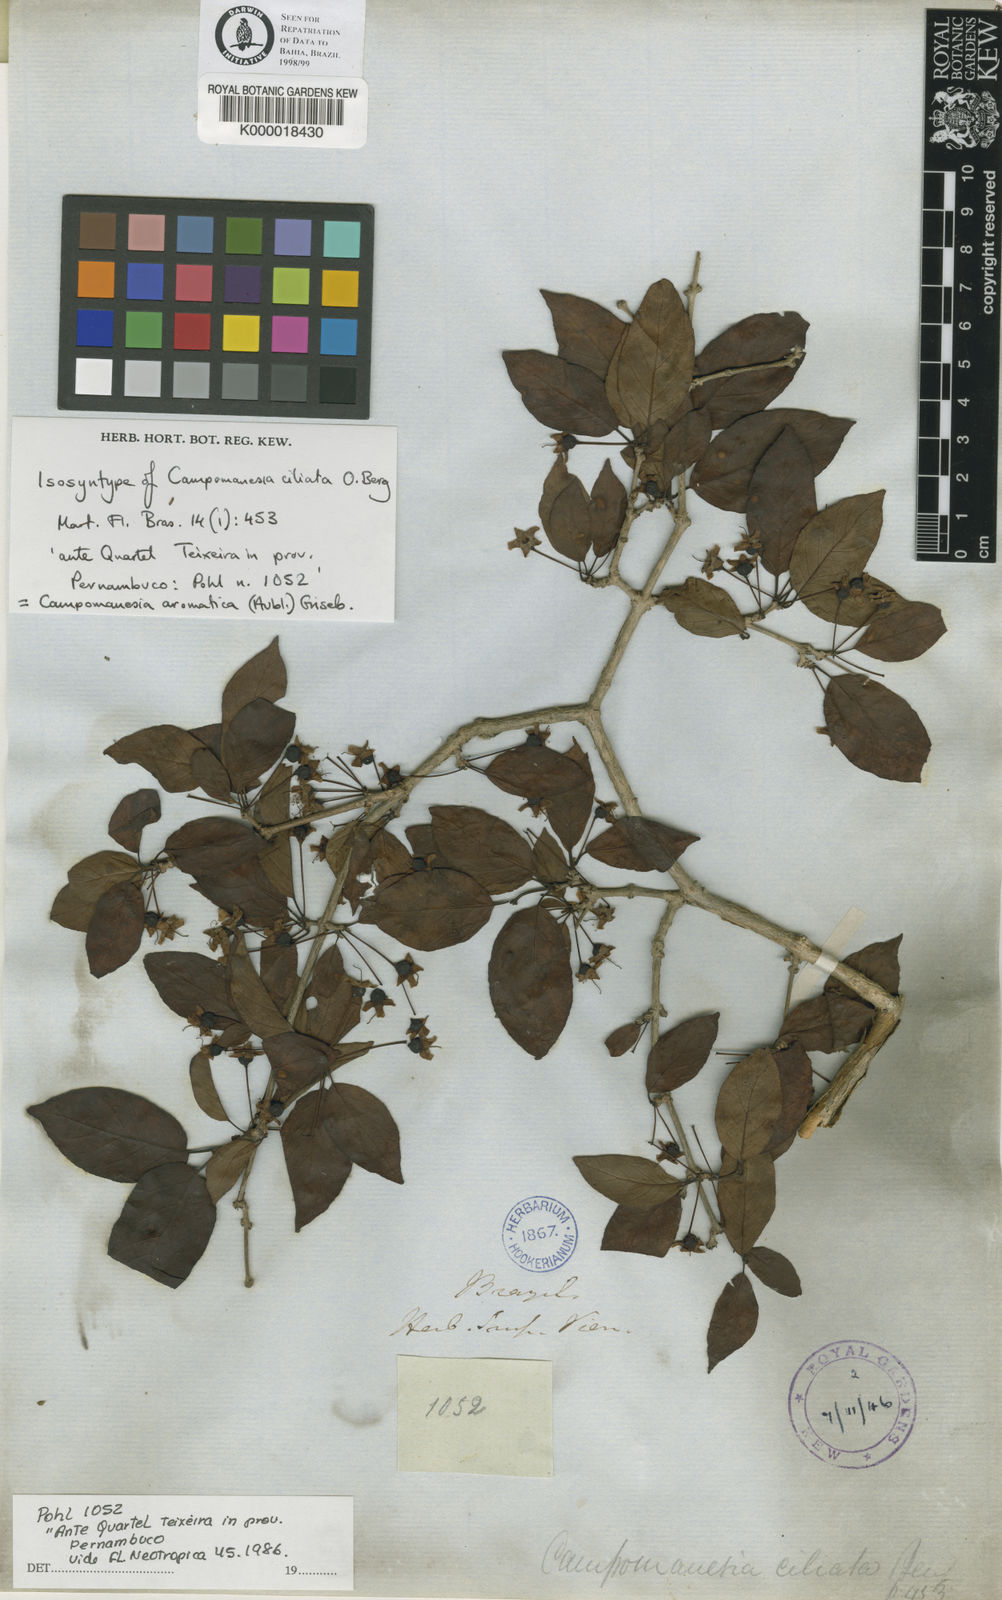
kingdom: Plantae
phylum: Tracheophyta
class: Magnoliopsida
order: Myrtales
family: Myrtaceae
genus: Campomanesia
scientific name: Campomanesia aromatica
